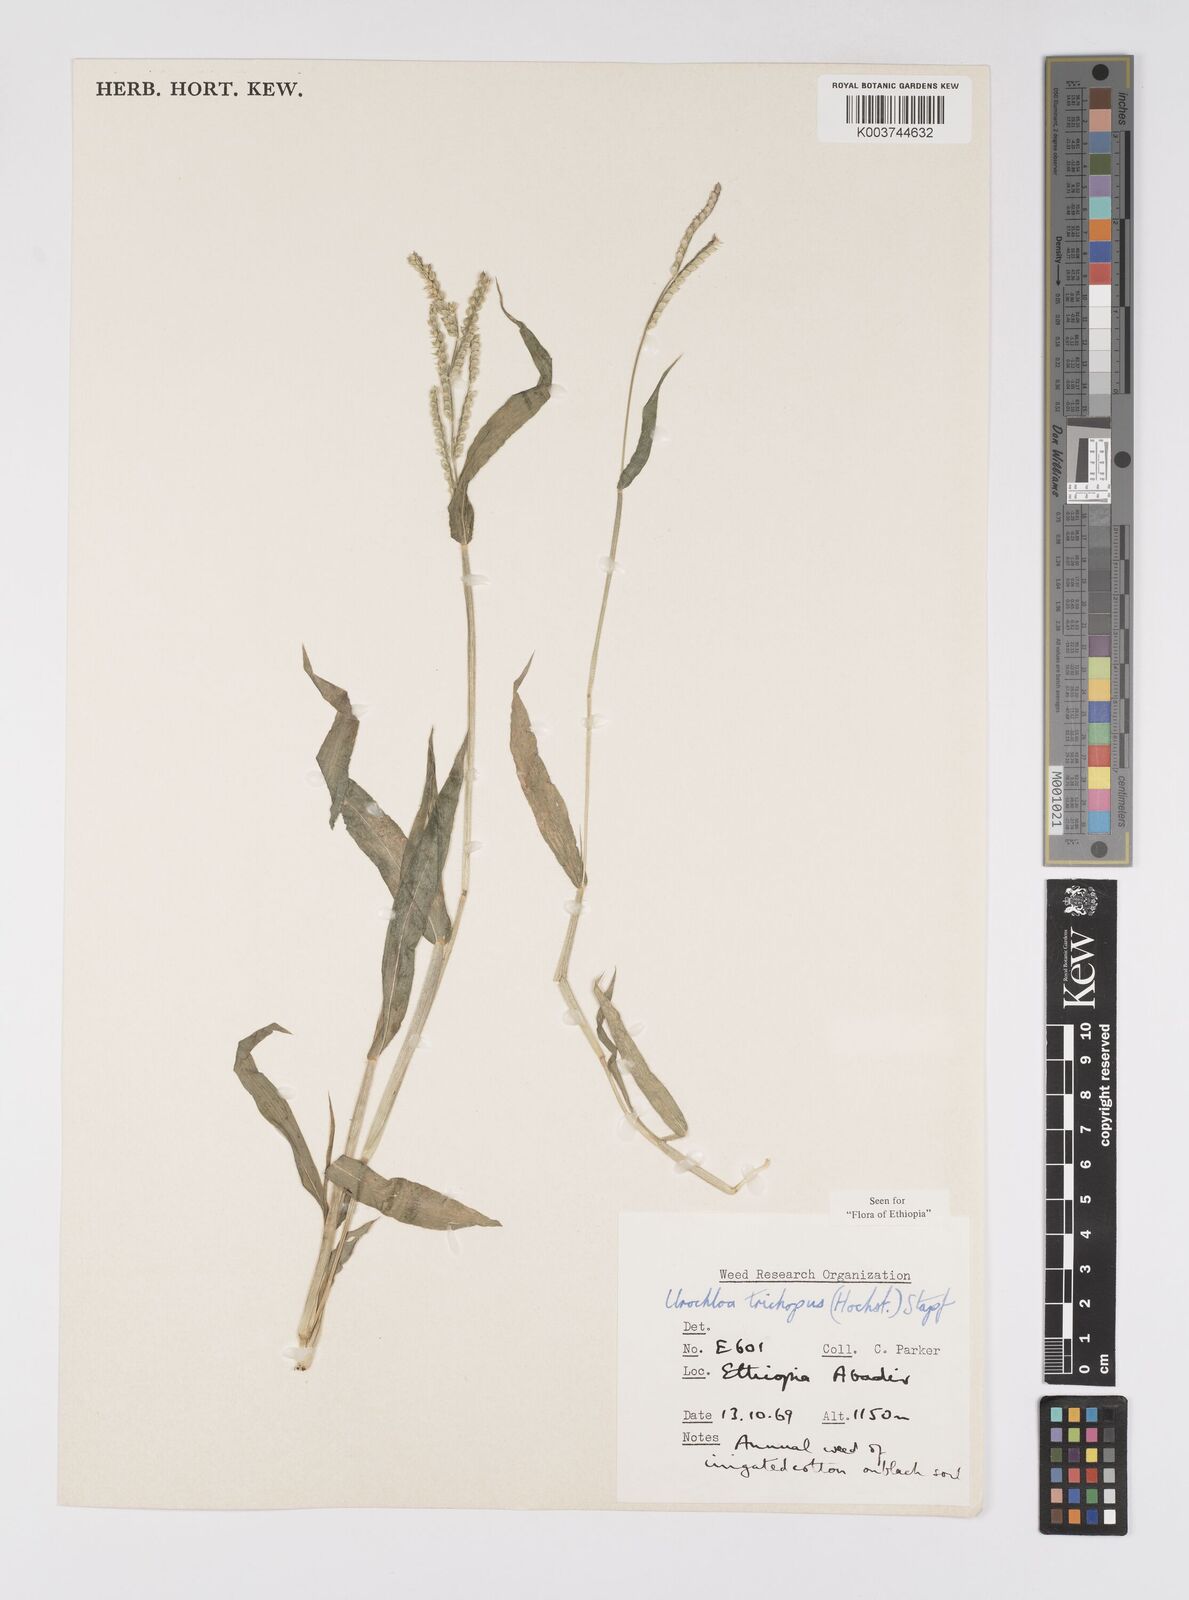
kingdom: Plantae
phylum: Tracheophyta
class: Liliopsida
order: Poales
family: Poaceae
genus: Urochloa
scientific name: Urochloa trichopus
